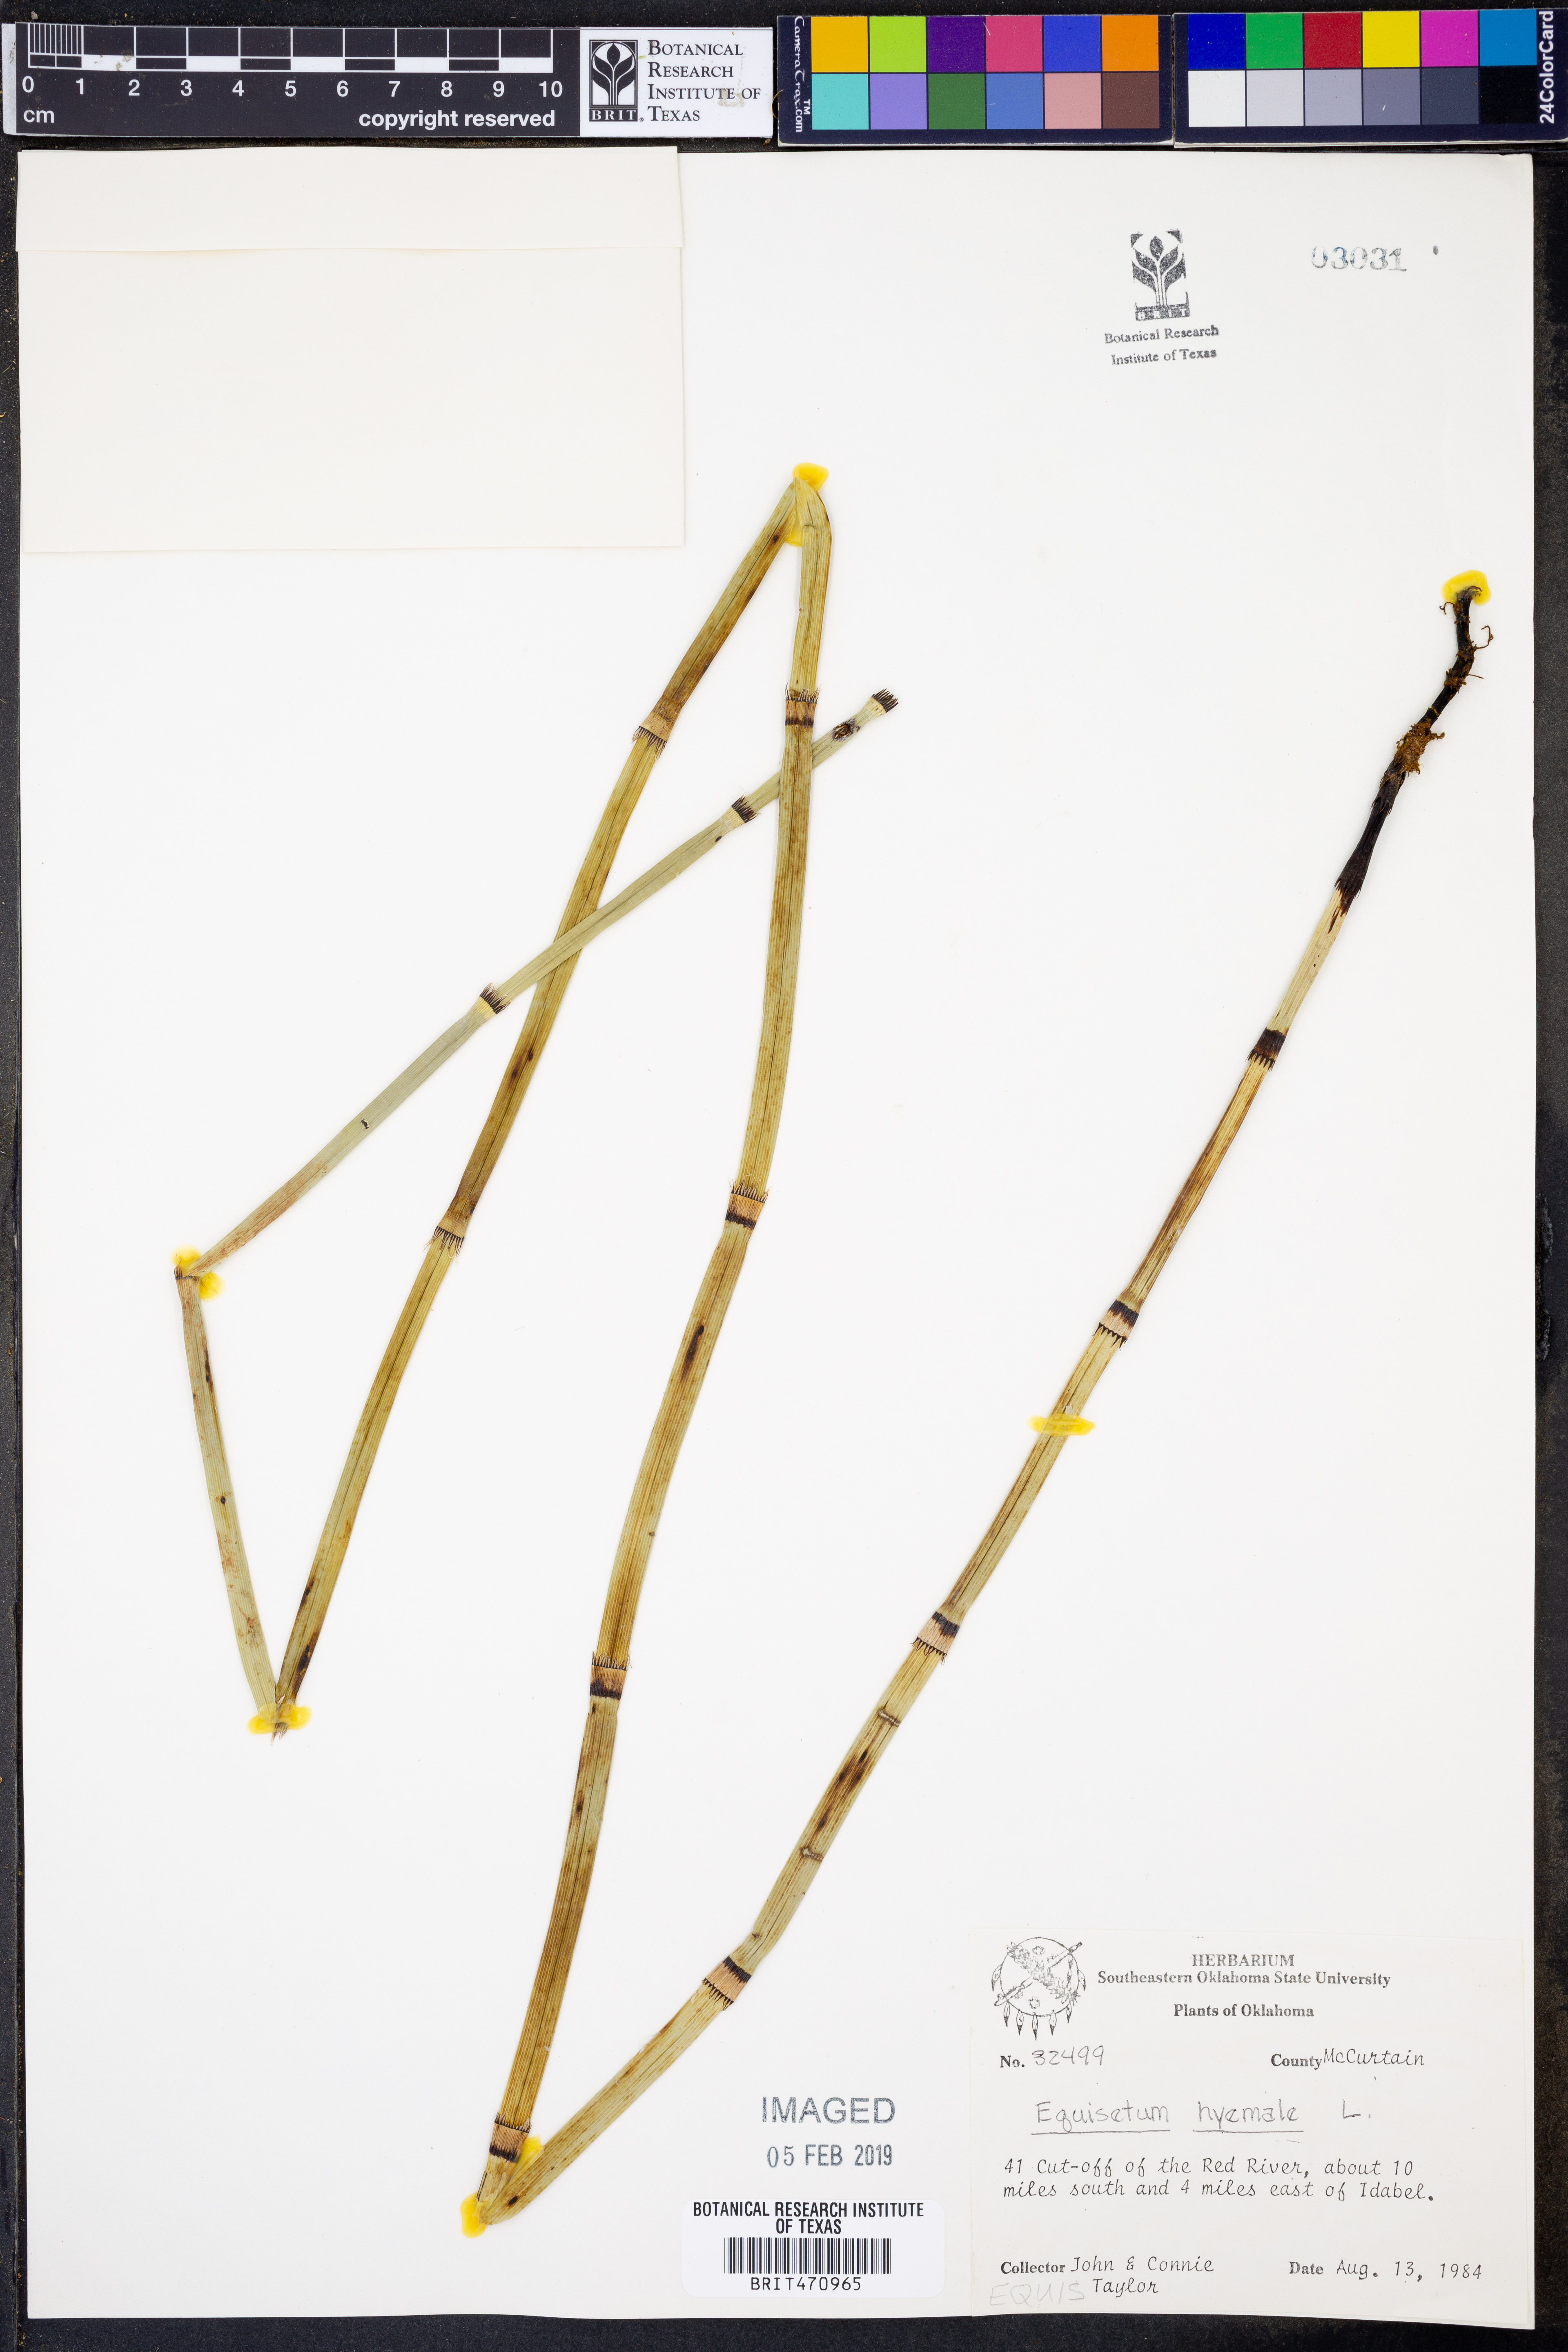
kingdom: Plantae
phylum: Tracheophyta
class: Polypodiopsida
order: Equisetales
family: Equisetaceae
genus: Equisetum
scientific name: Equisetum hyemale
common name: Rough horsetail
